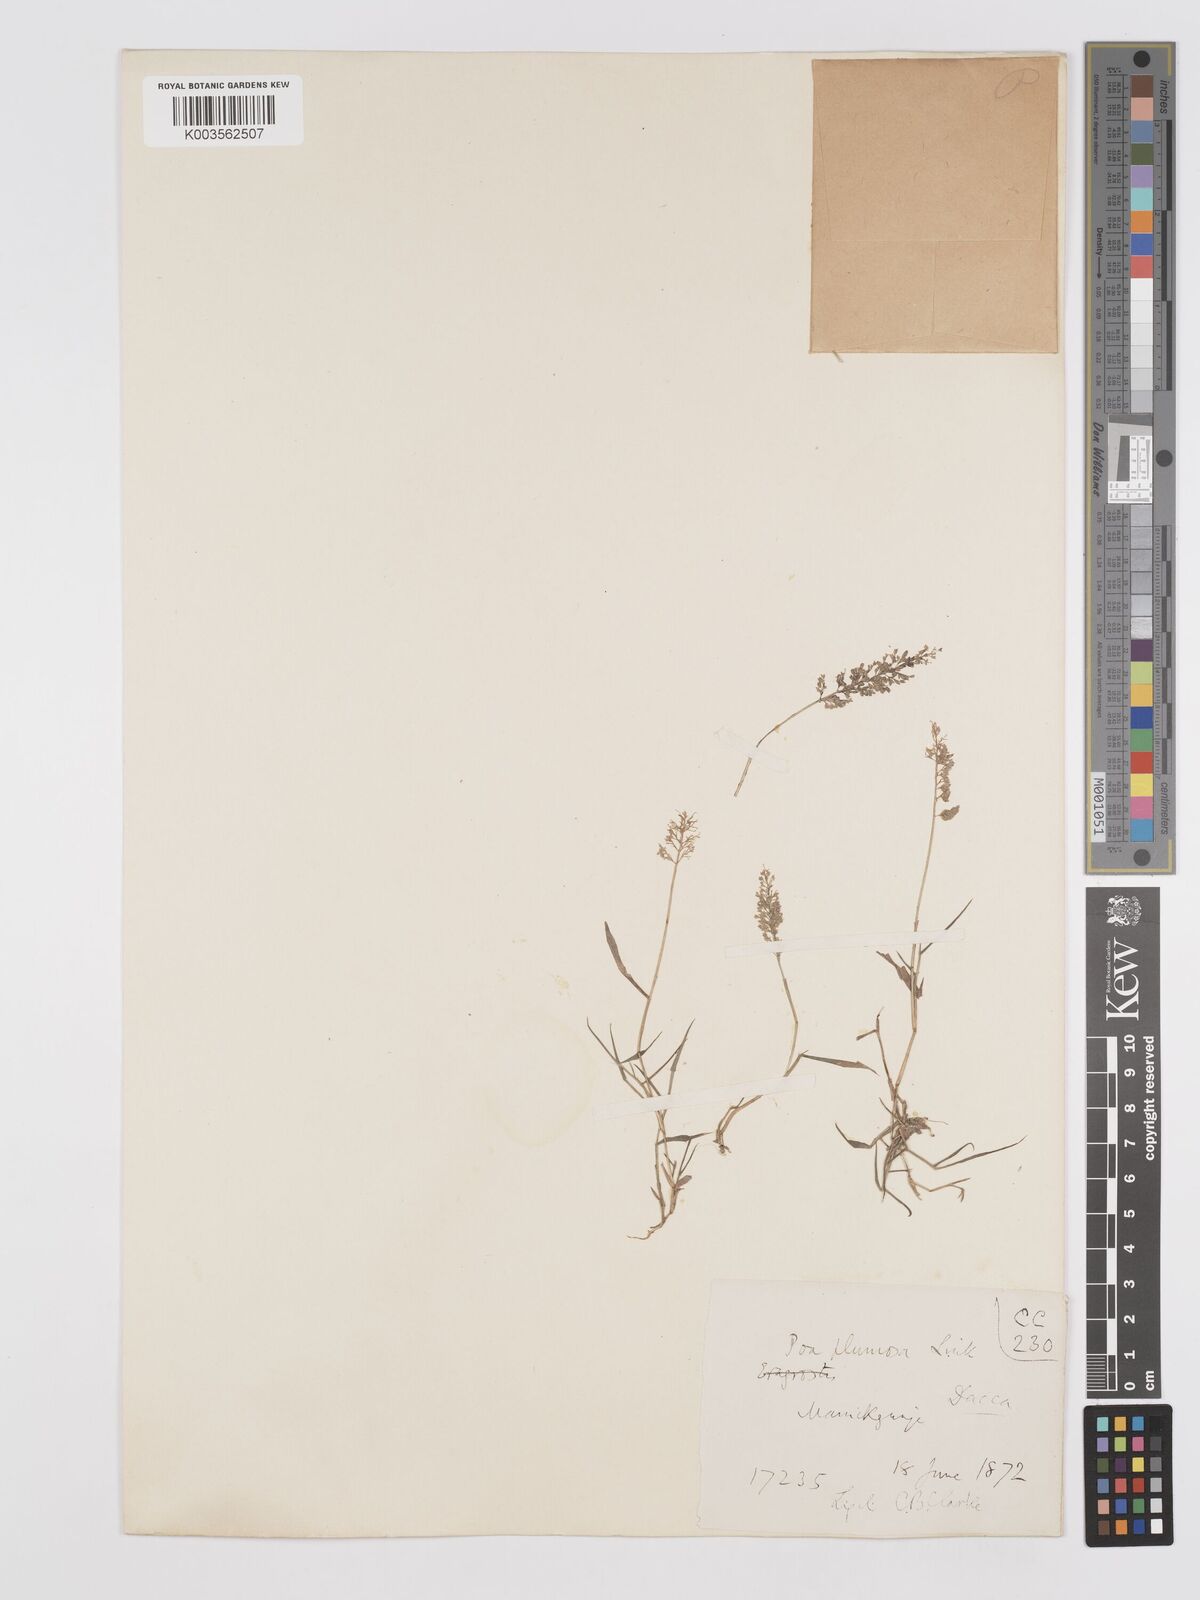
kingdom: Plantae
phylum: Tracheophyta
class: Liliopsida
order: Poales
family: Poaceae
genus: Eragrostis
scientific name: Eragrostis tenella
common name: Japanese lovegrass
